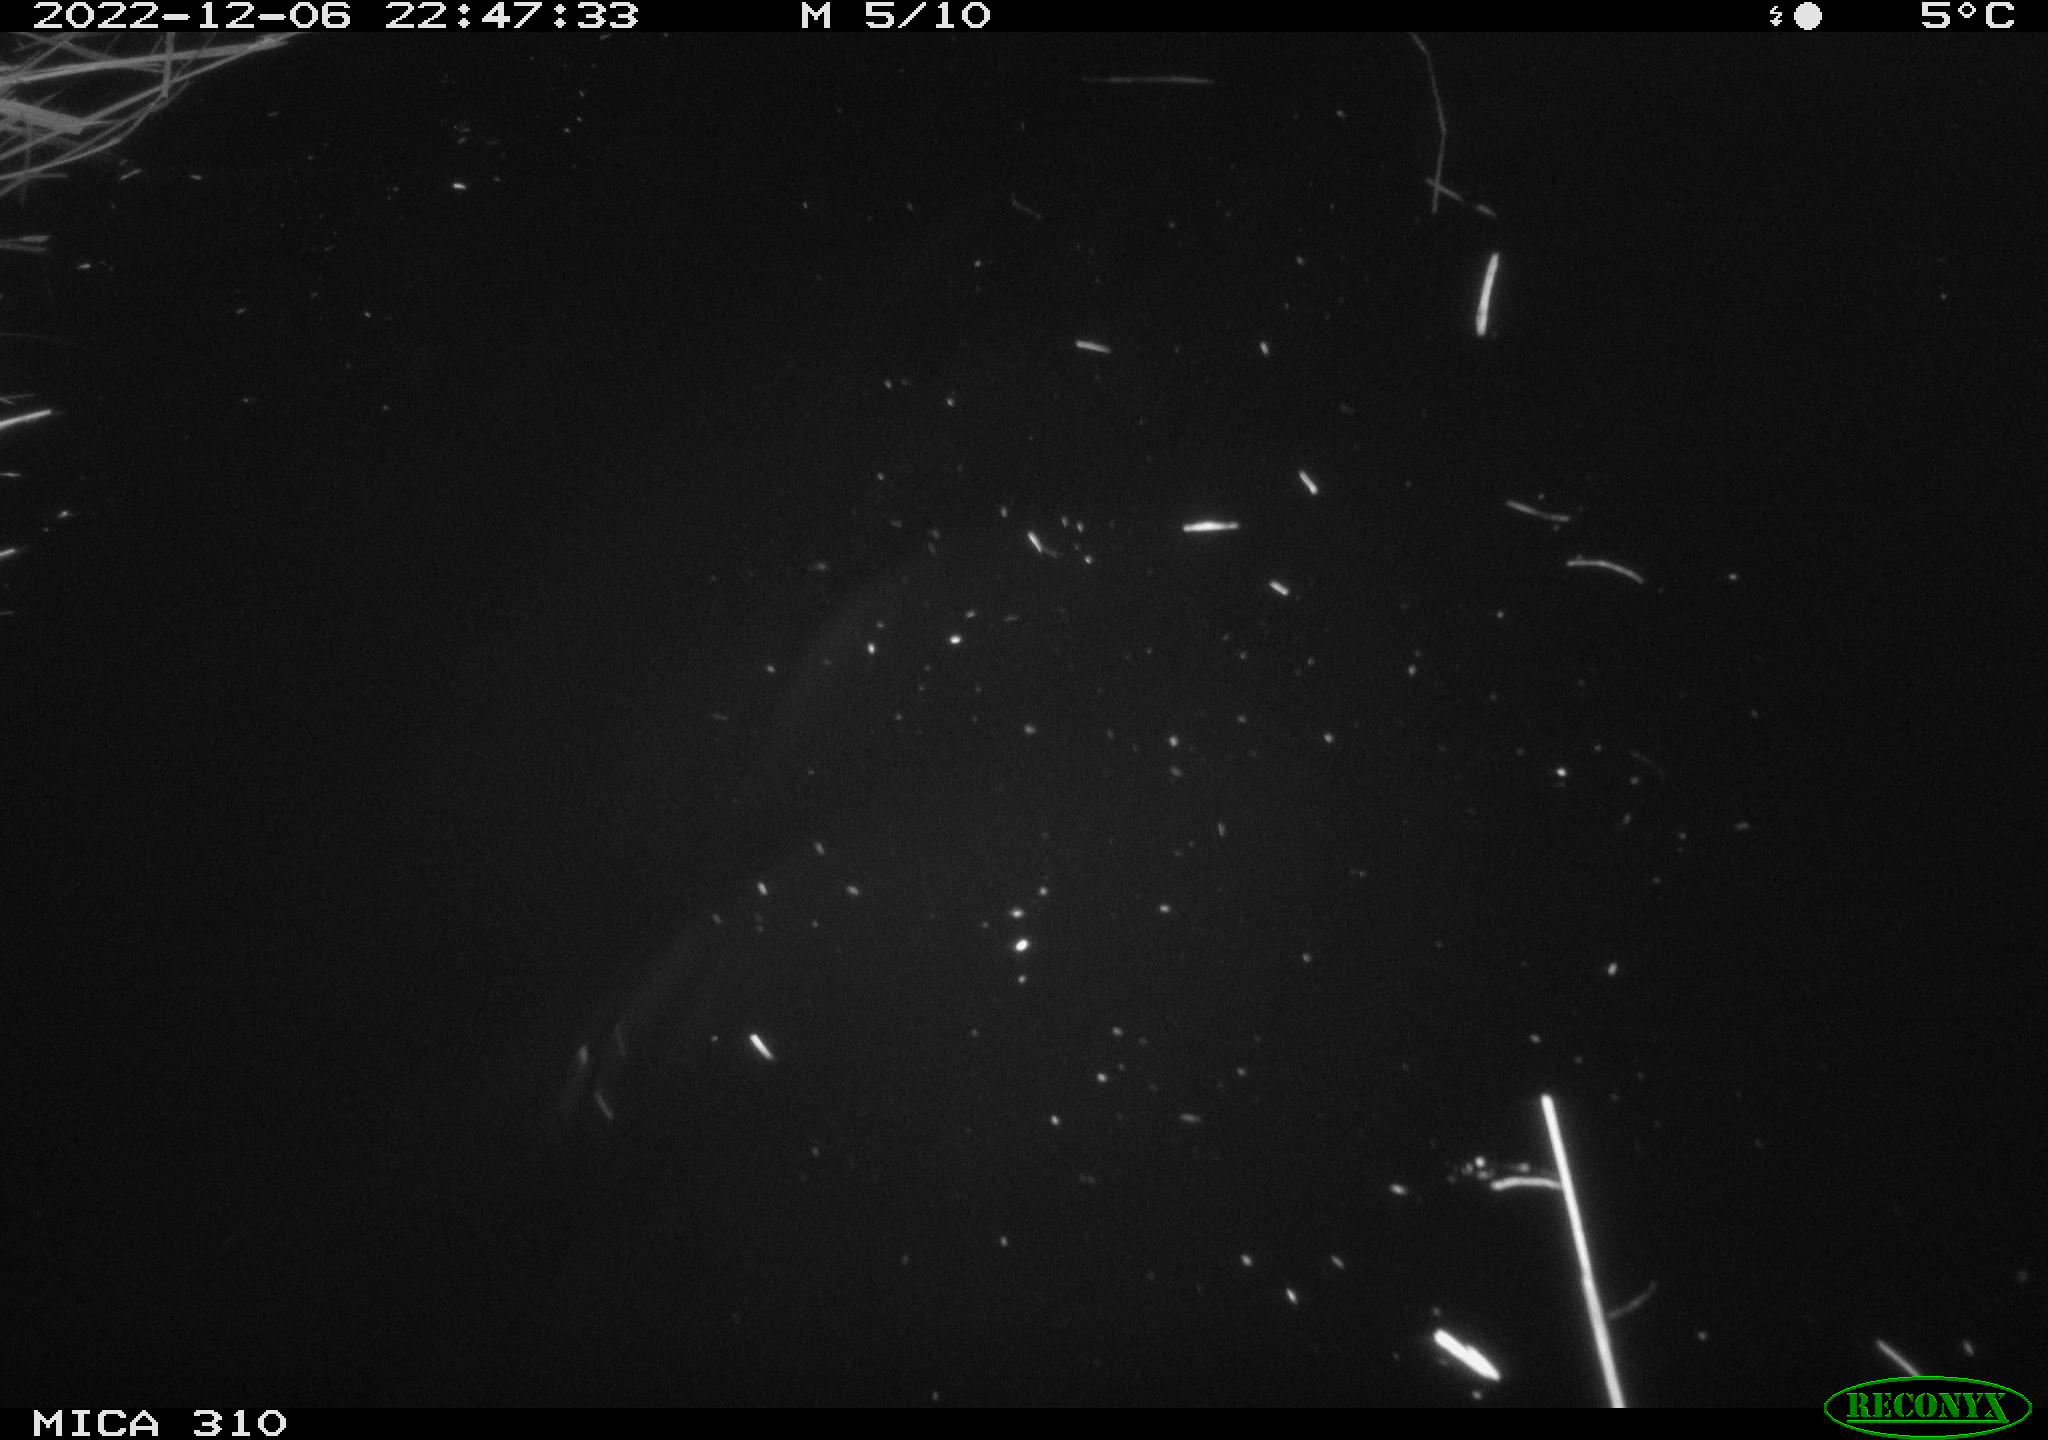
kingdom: Animalia
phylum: Chordata
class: Mammalia
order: Rodentia
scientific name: Rodentia
